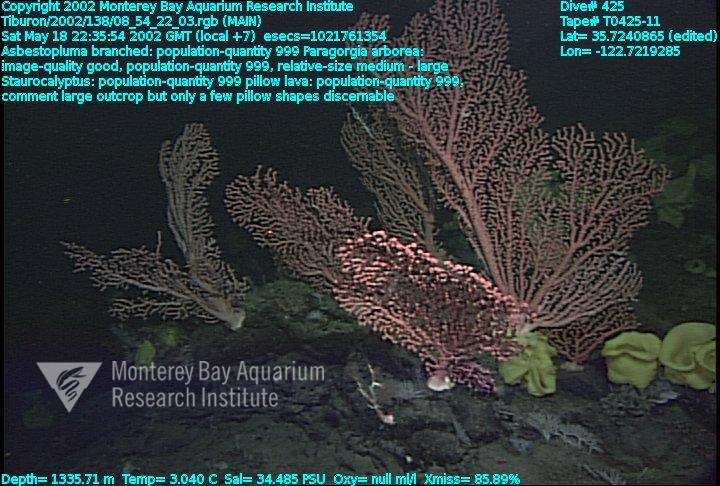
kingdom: Animalia
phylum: Porifera
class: Hexactinellida
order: Lyssacinosida
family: Rossellidae
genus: Staurocalyptus
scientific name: Staurocalyptus
